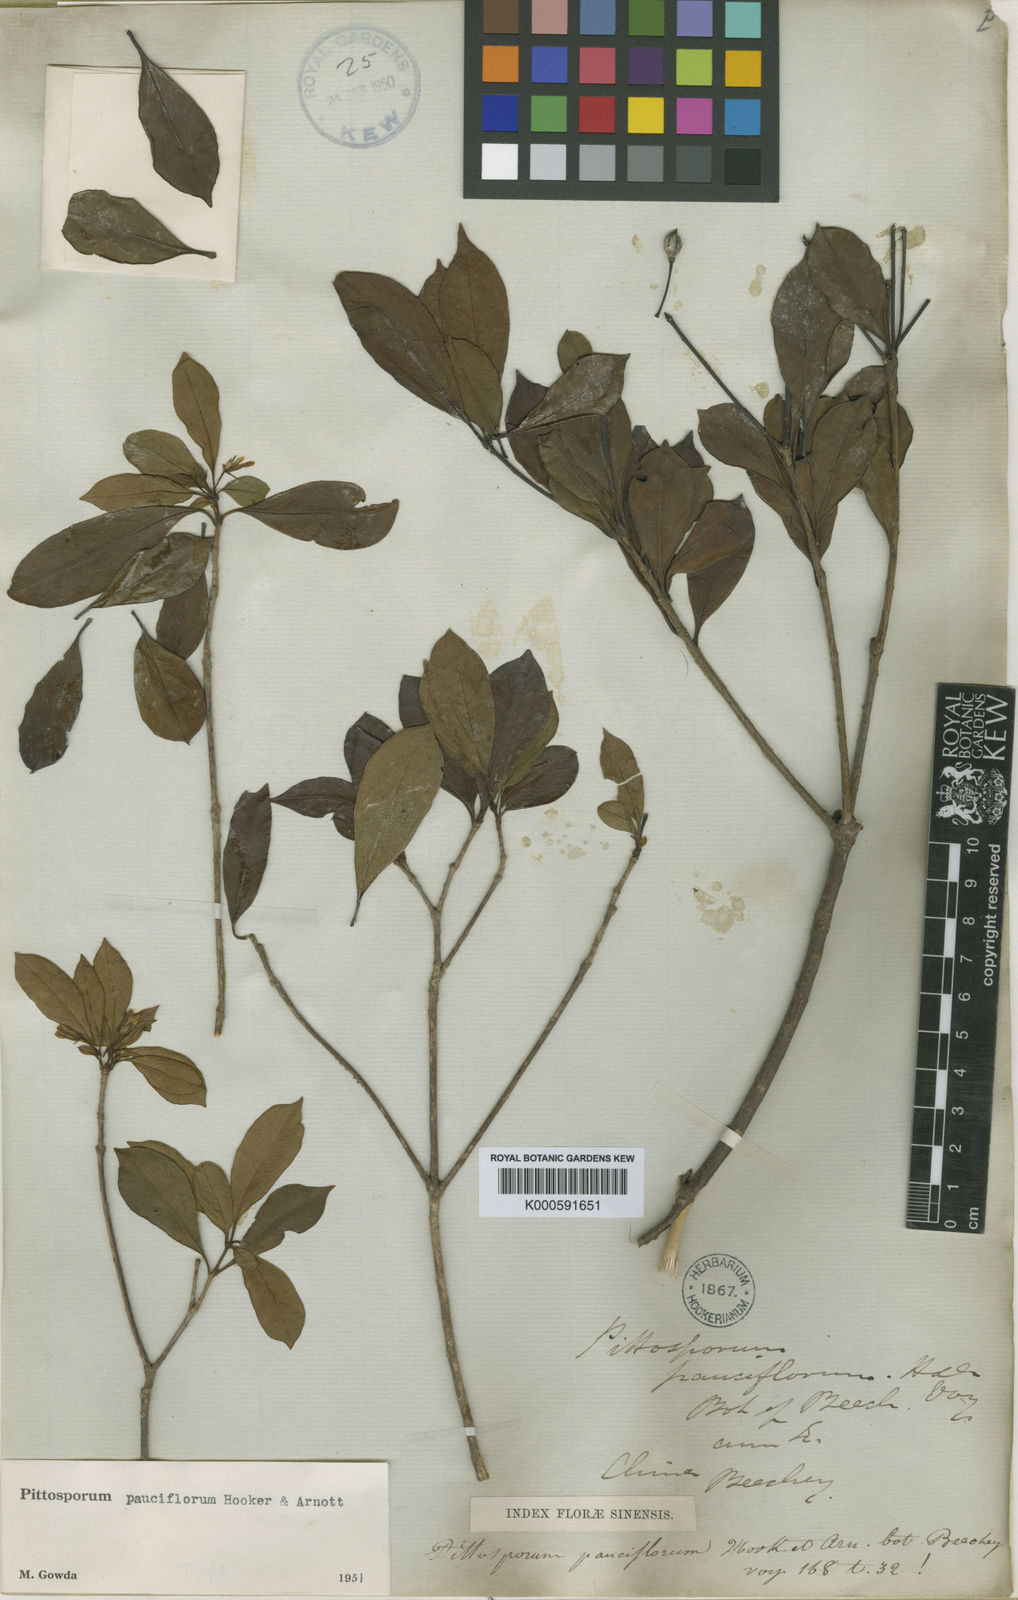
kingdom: Plantae
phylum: Tracheophyta
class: Magnoliopsida
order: Apiales
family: Pittosporaceae
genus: Pittosporum
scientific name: Pittosporum pauciflorum
